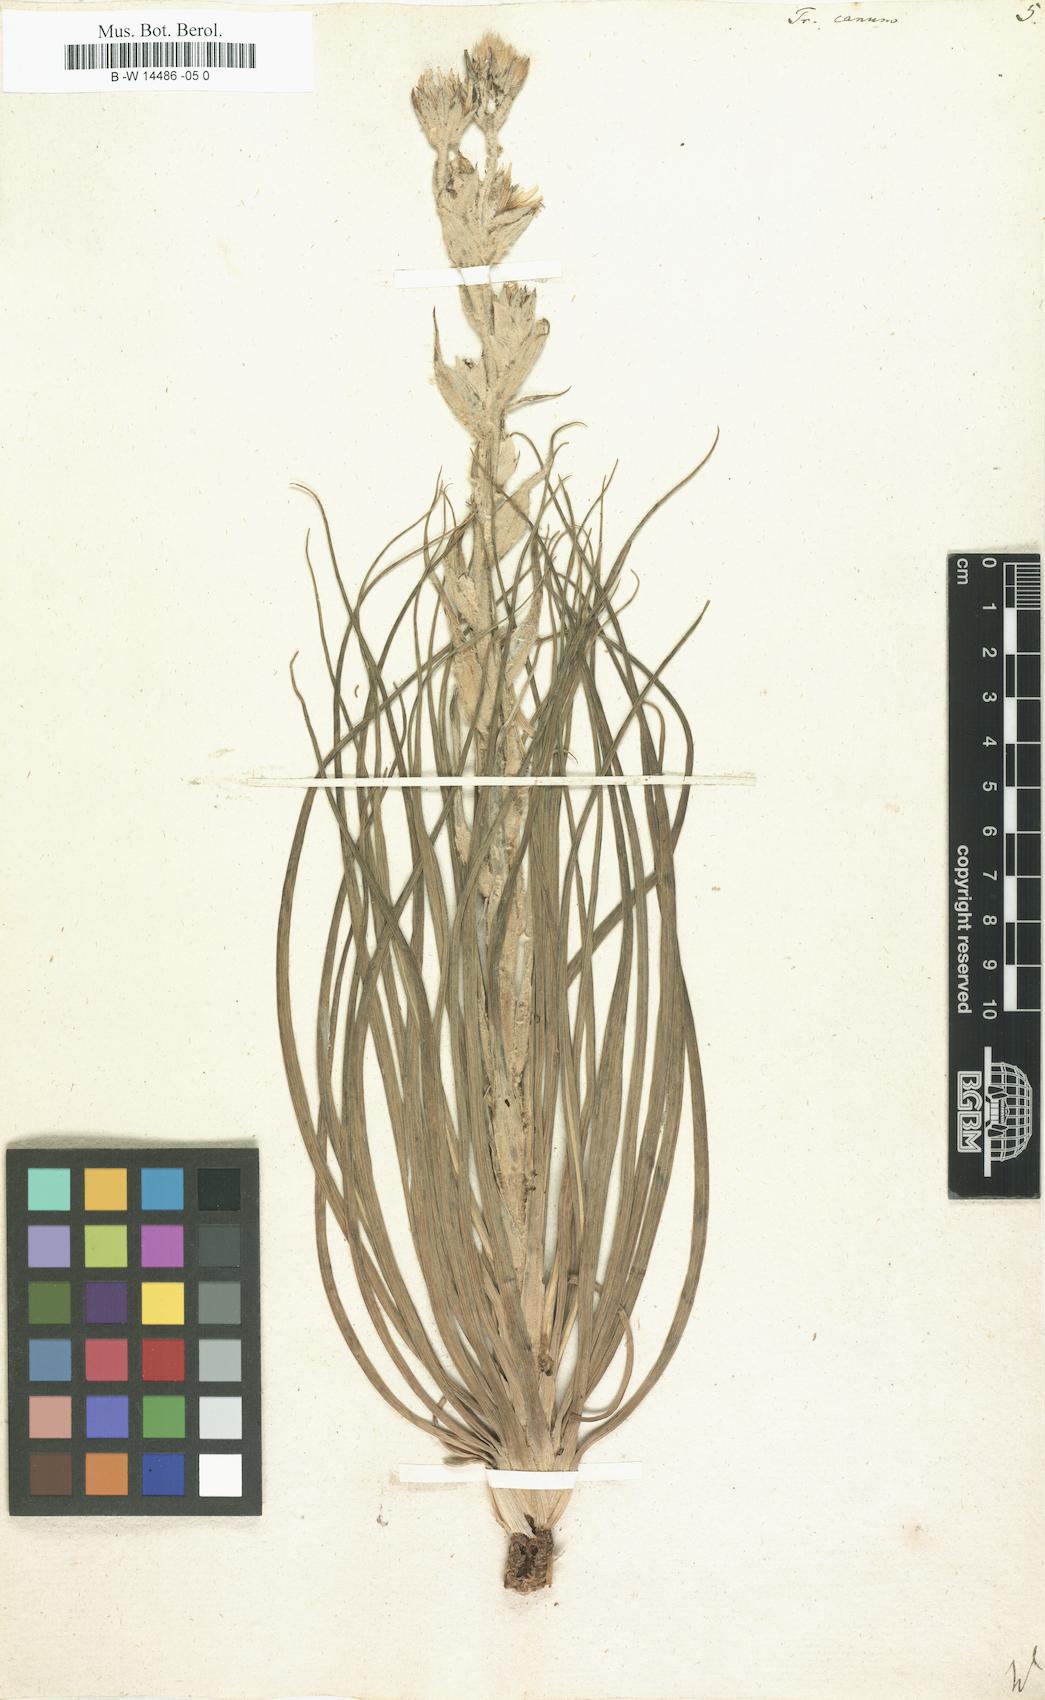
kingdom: Plantae
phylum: Tracheophyta
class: Magnoliopsida
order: Asterales
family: Asteraceae
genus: Tragopogon
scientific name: Tragopogon floccosus
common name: Woolly goatsbeard
